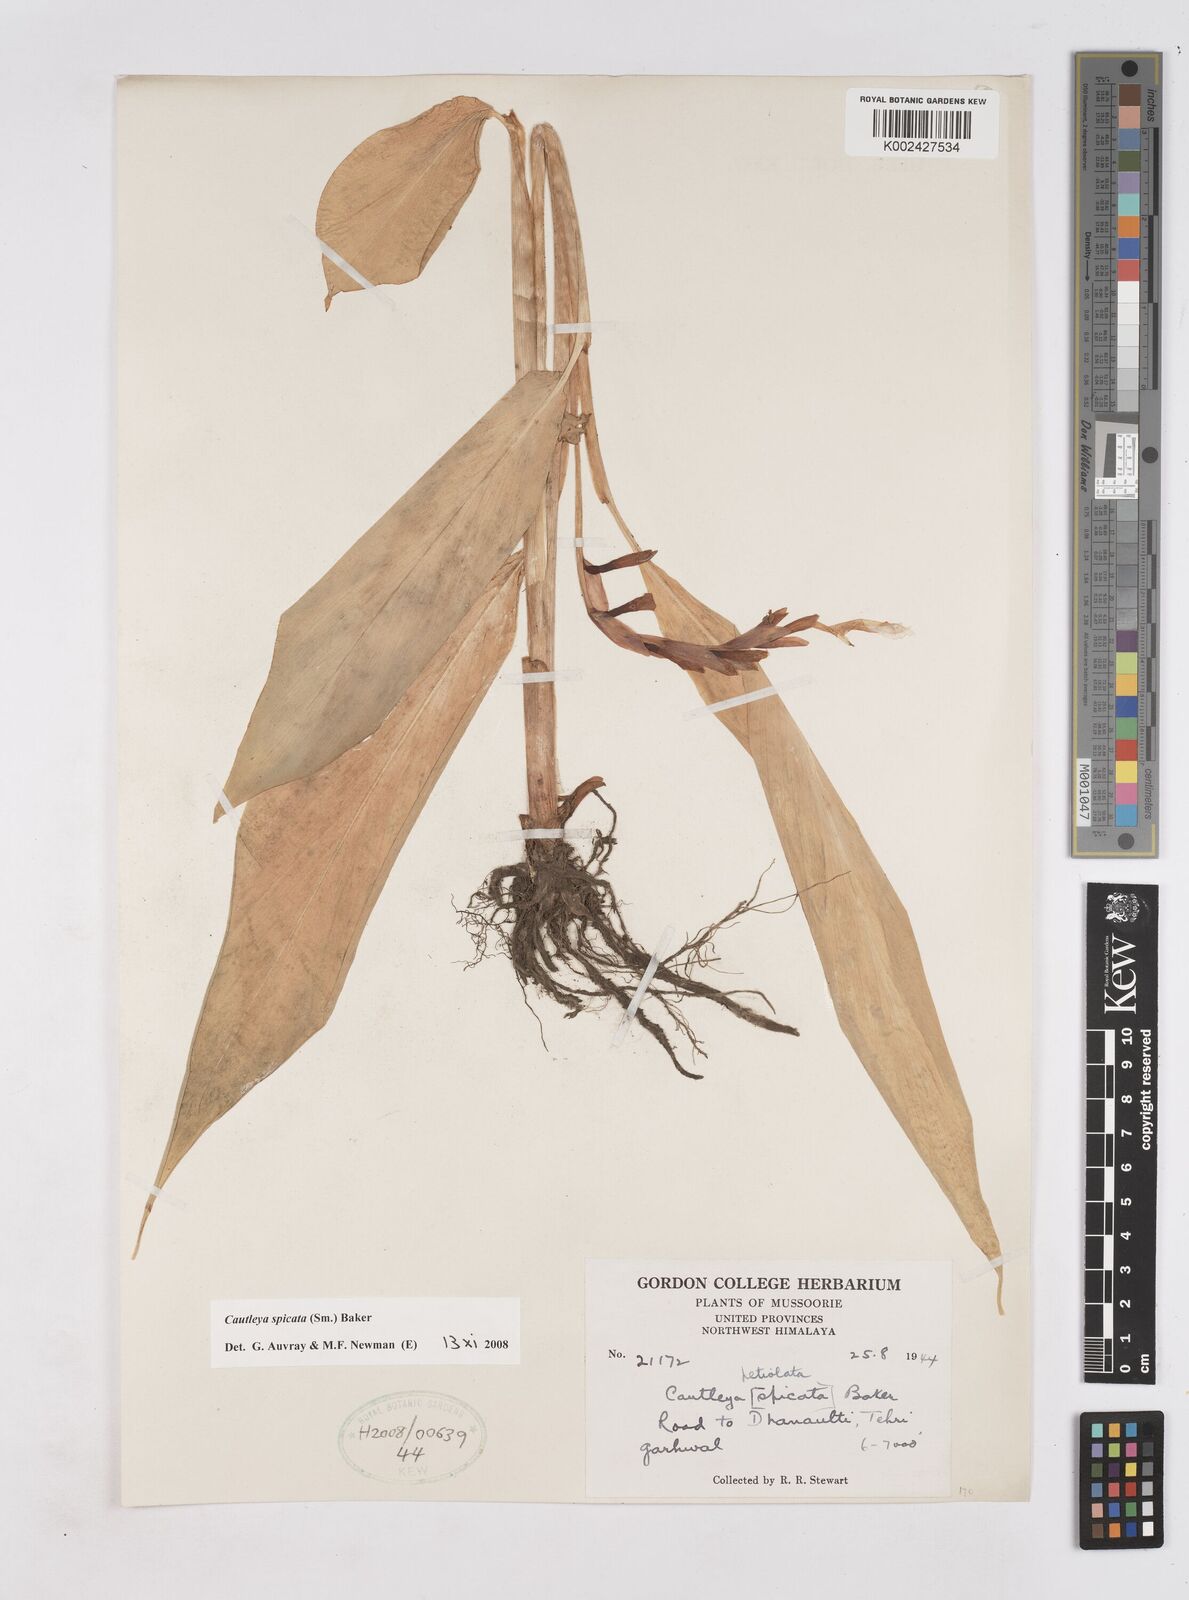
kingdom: Plantae
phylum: Tracheophyta
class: Liliopsida
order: Zingiberales
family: Zingiberaceae
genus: Cautleya
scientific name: Cautleya spicata
